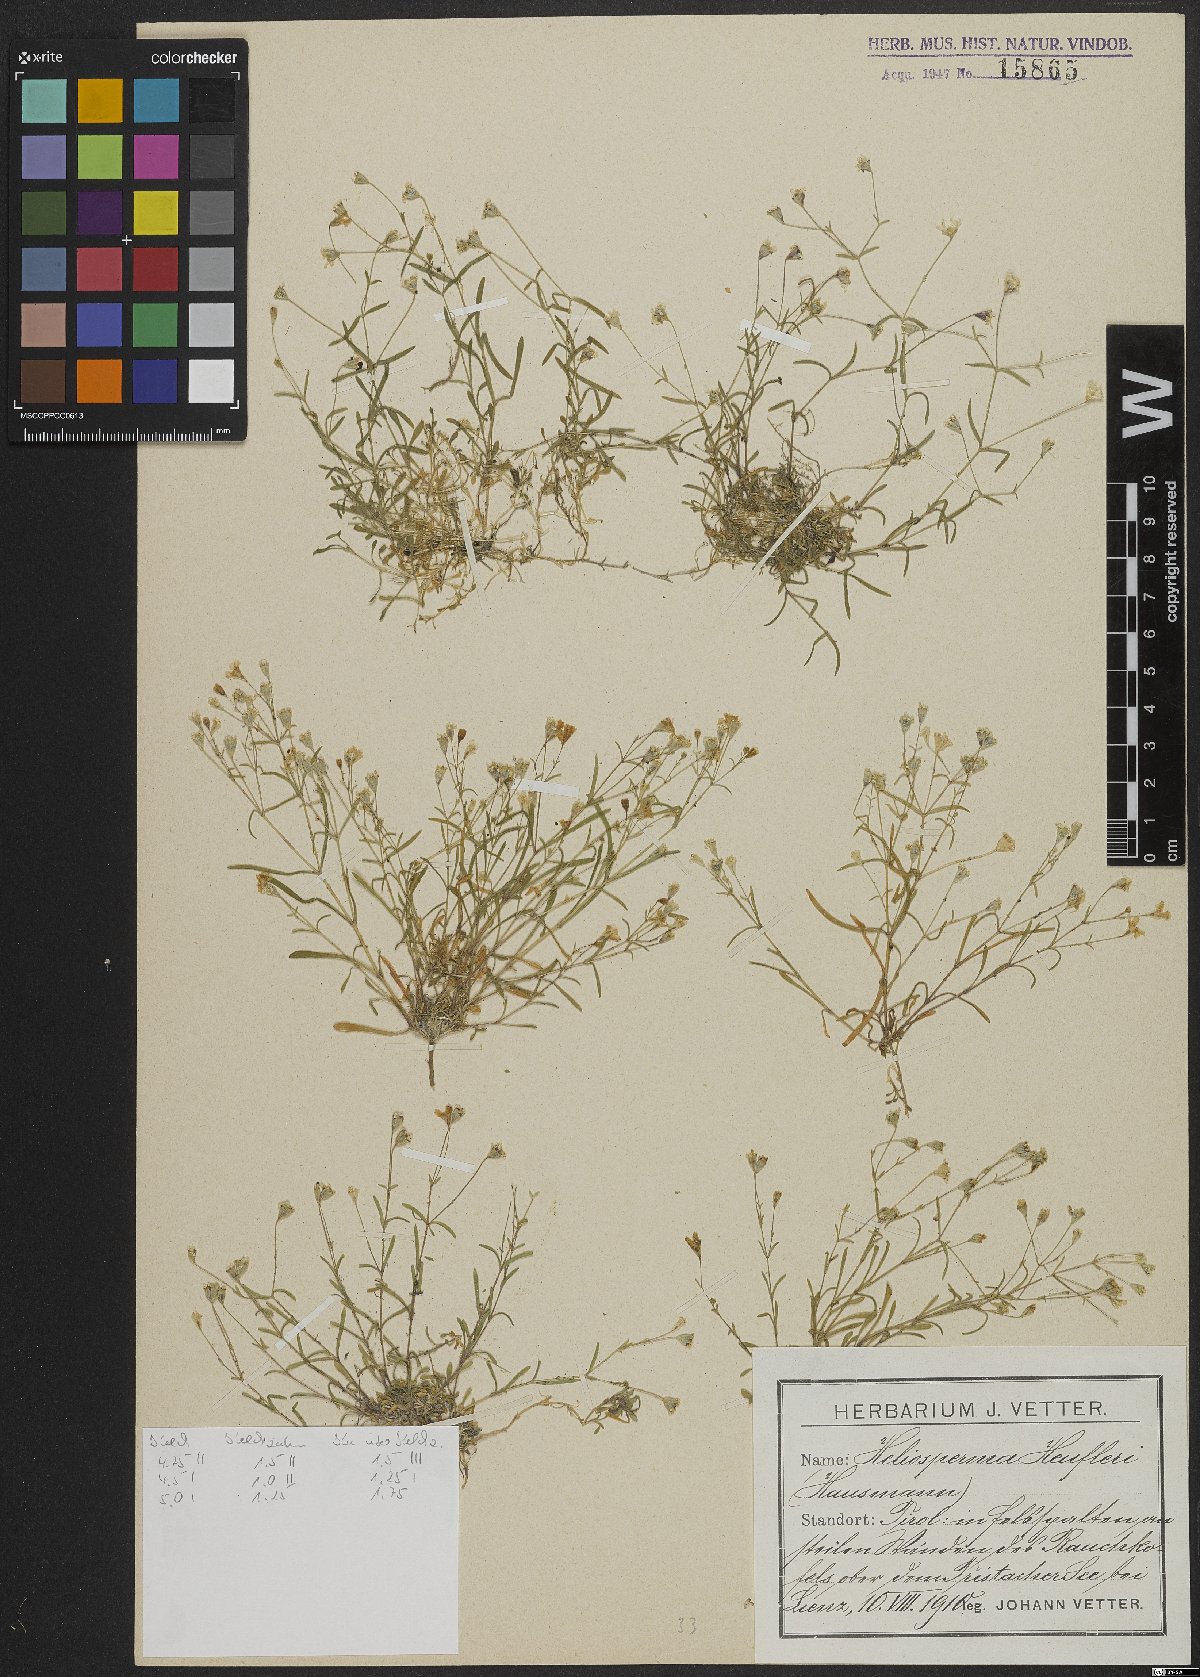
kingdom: Plantae
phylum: Tracheophyta
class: Magnoliopsida
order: Caryophyllales
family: Caryophyllaceae
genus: Heliosperma
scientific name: Heliosperma veselskyi
